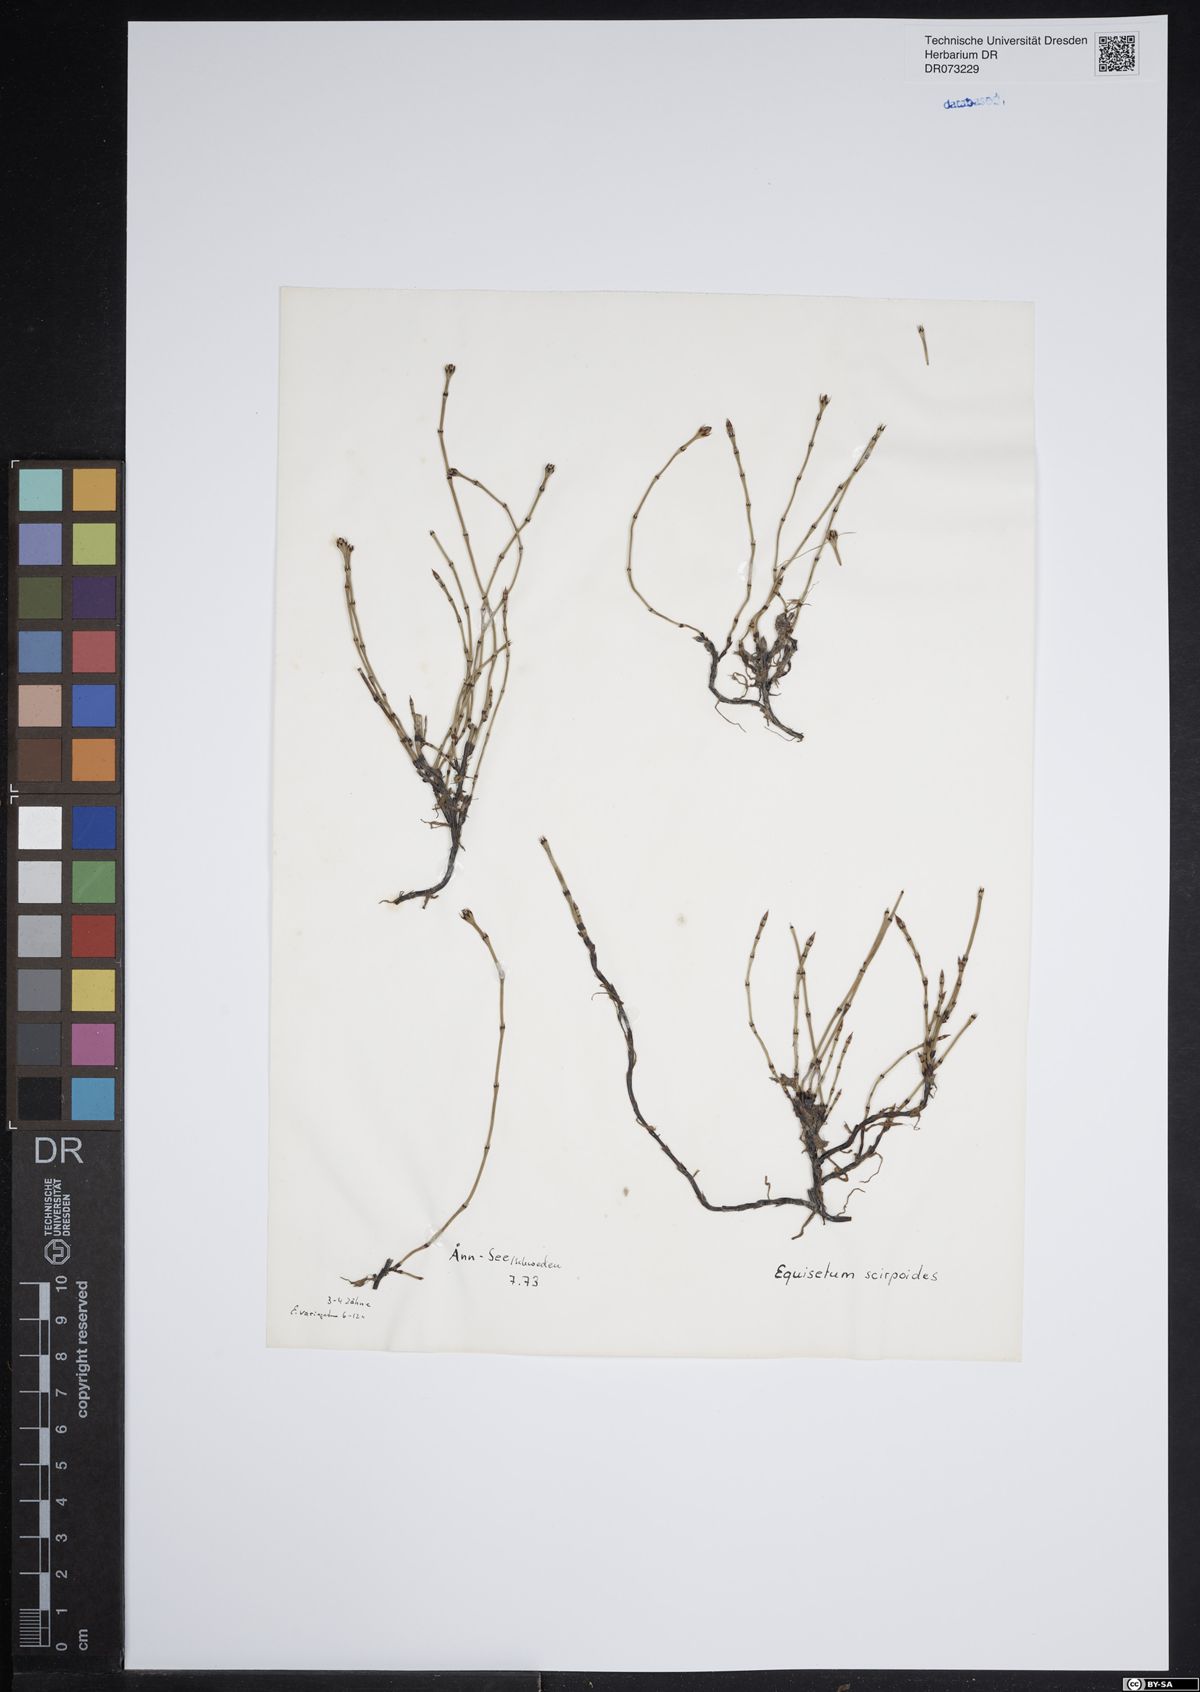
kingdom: Plantae
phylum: Tracheophyta
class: Polypodiopsida
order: Equisetales
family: Equisetaceae
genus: Equisetum
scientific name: Equisetum scirpoides
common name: Delicate horsetail
